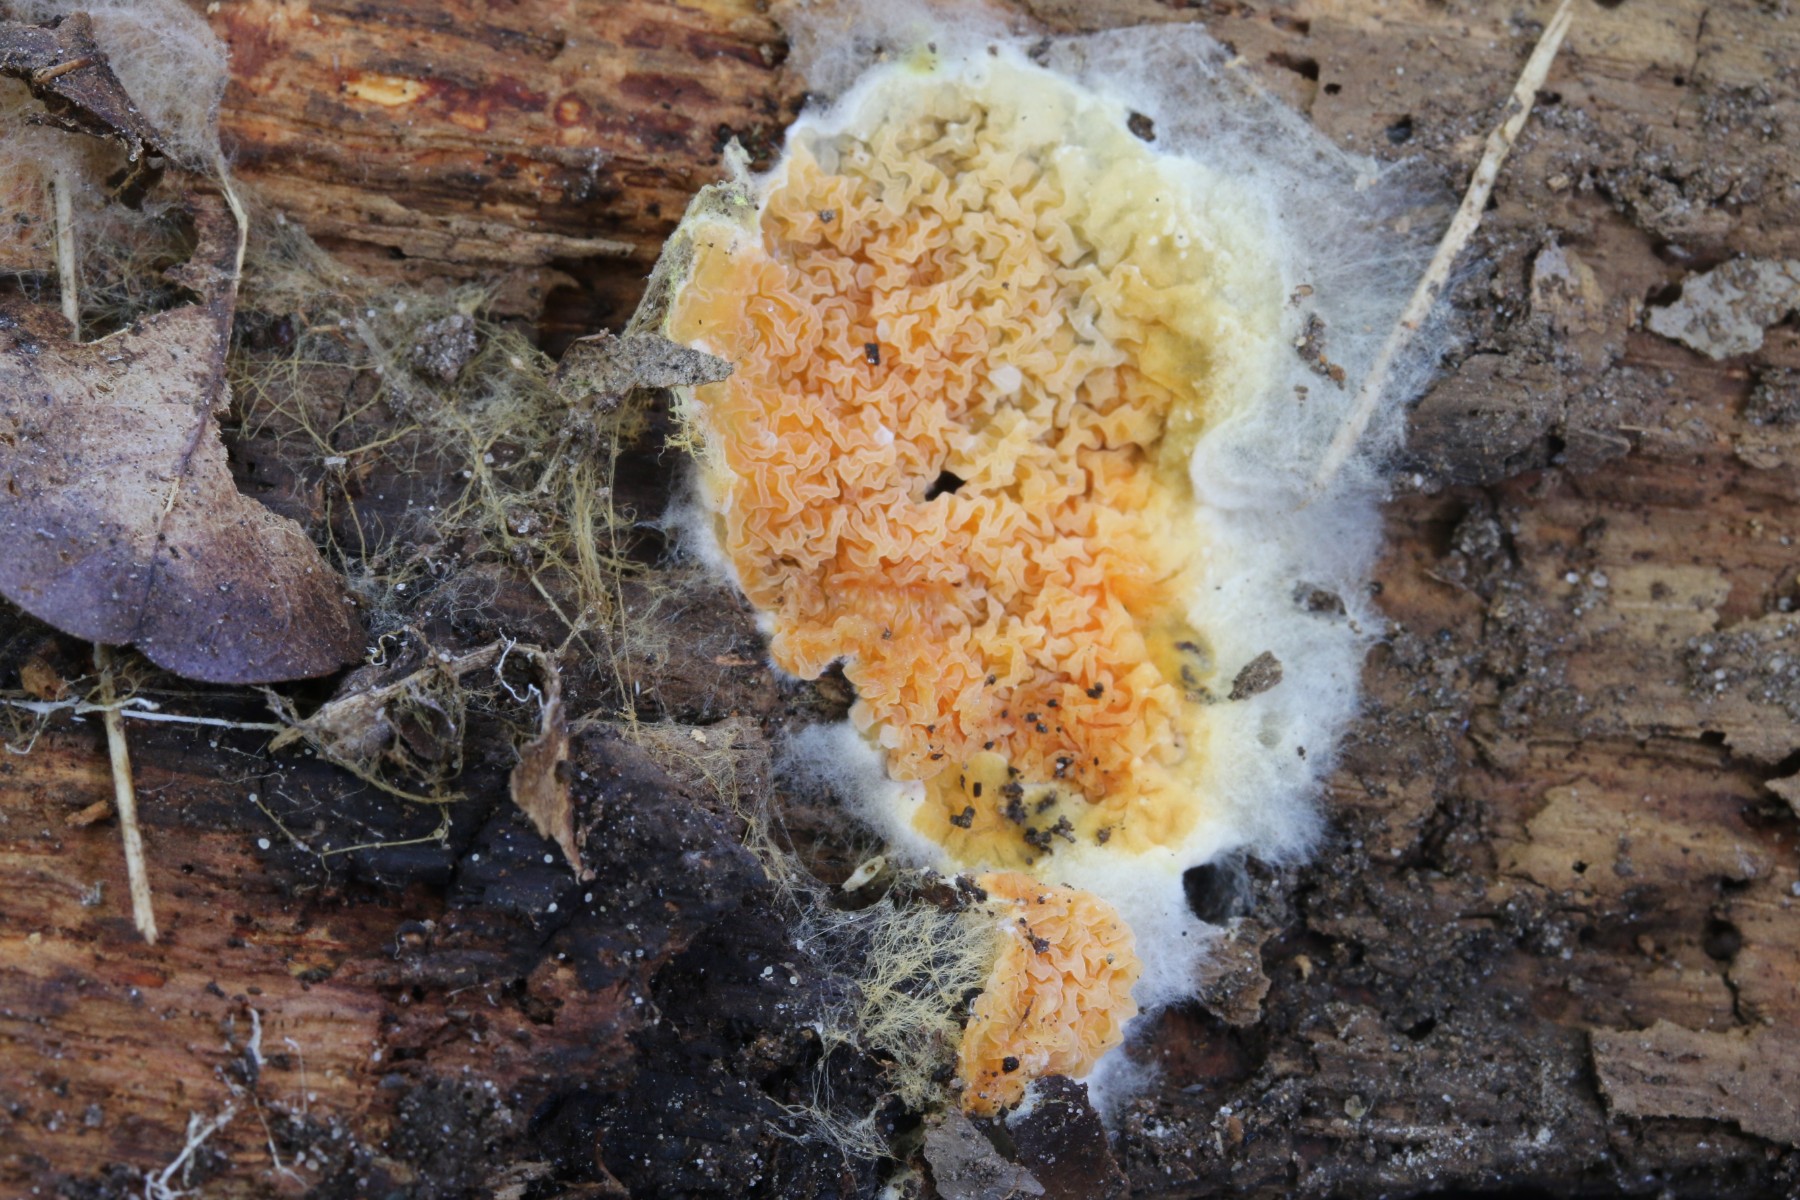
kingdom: Fungi
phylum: Basidiomycota
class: Agaricomycetes
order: Boletales
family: Coniophoraceae
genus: Penttilamyces
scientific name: Penttilamyces romellii
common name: Romells hussvamp
